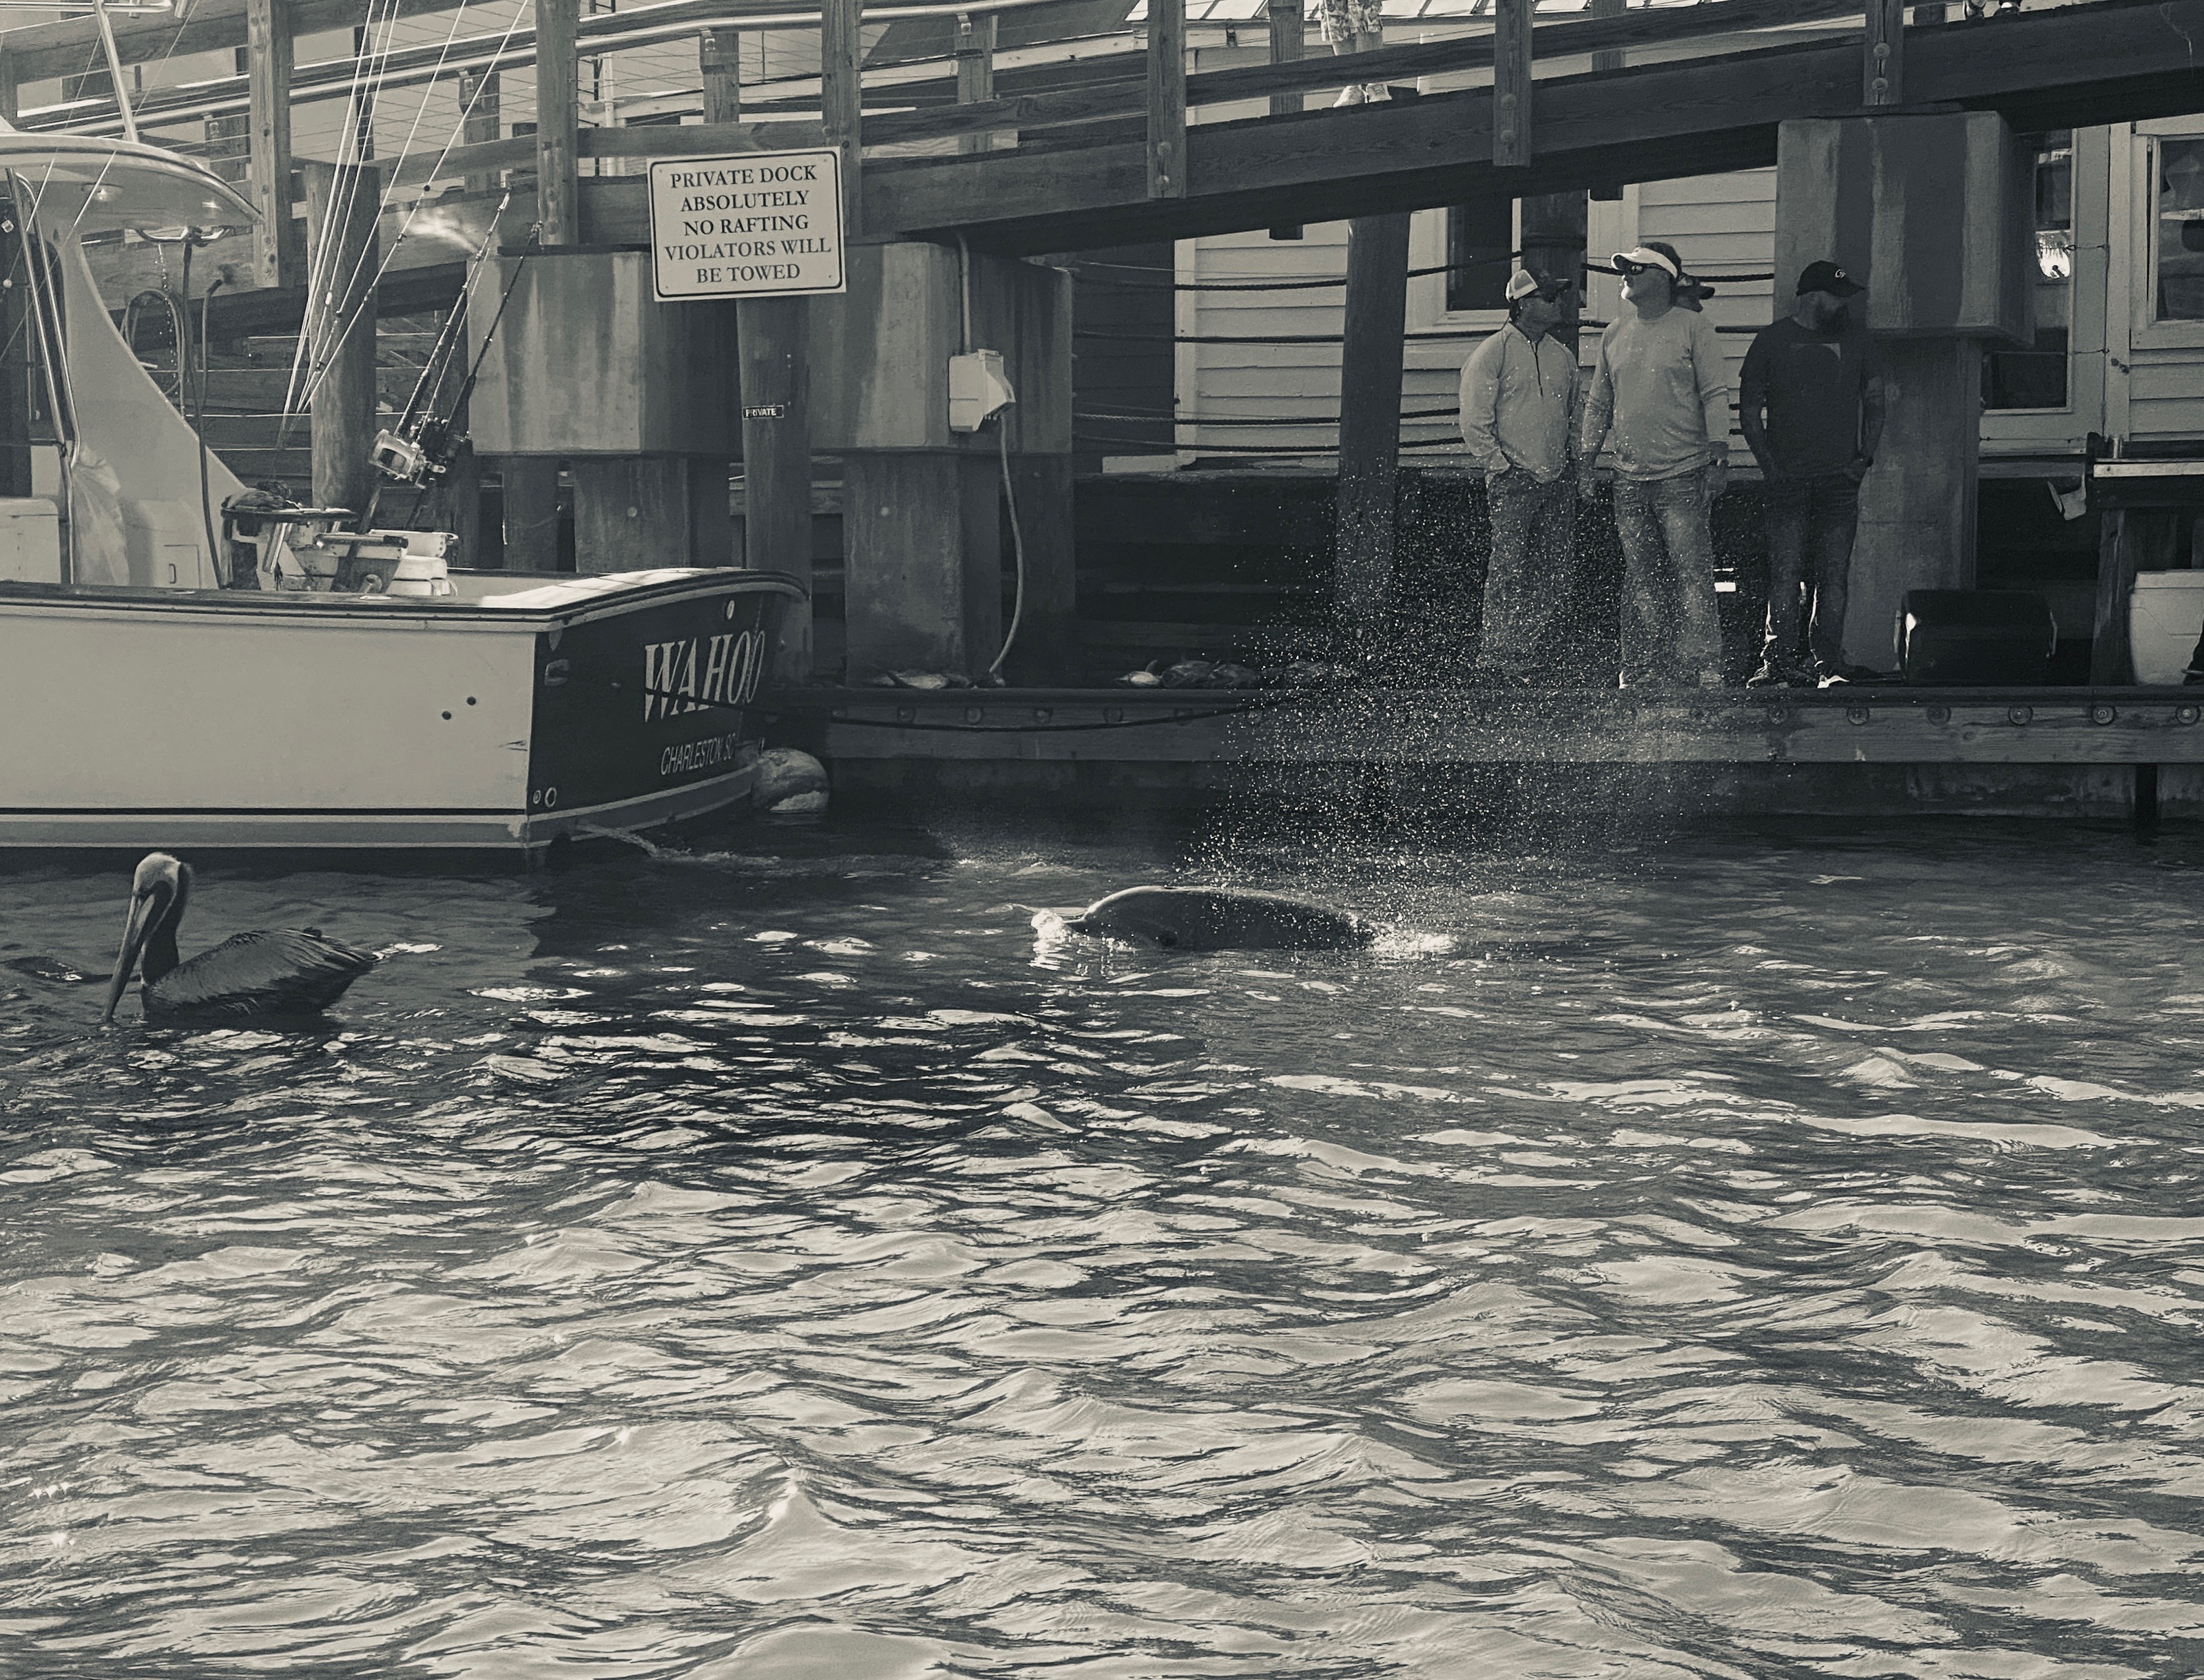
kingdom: Animalia
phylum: Chordata
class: Mammalia
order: Cetacea
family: Delphinidae
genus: Tursiops
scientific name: Tursiops truncatus
